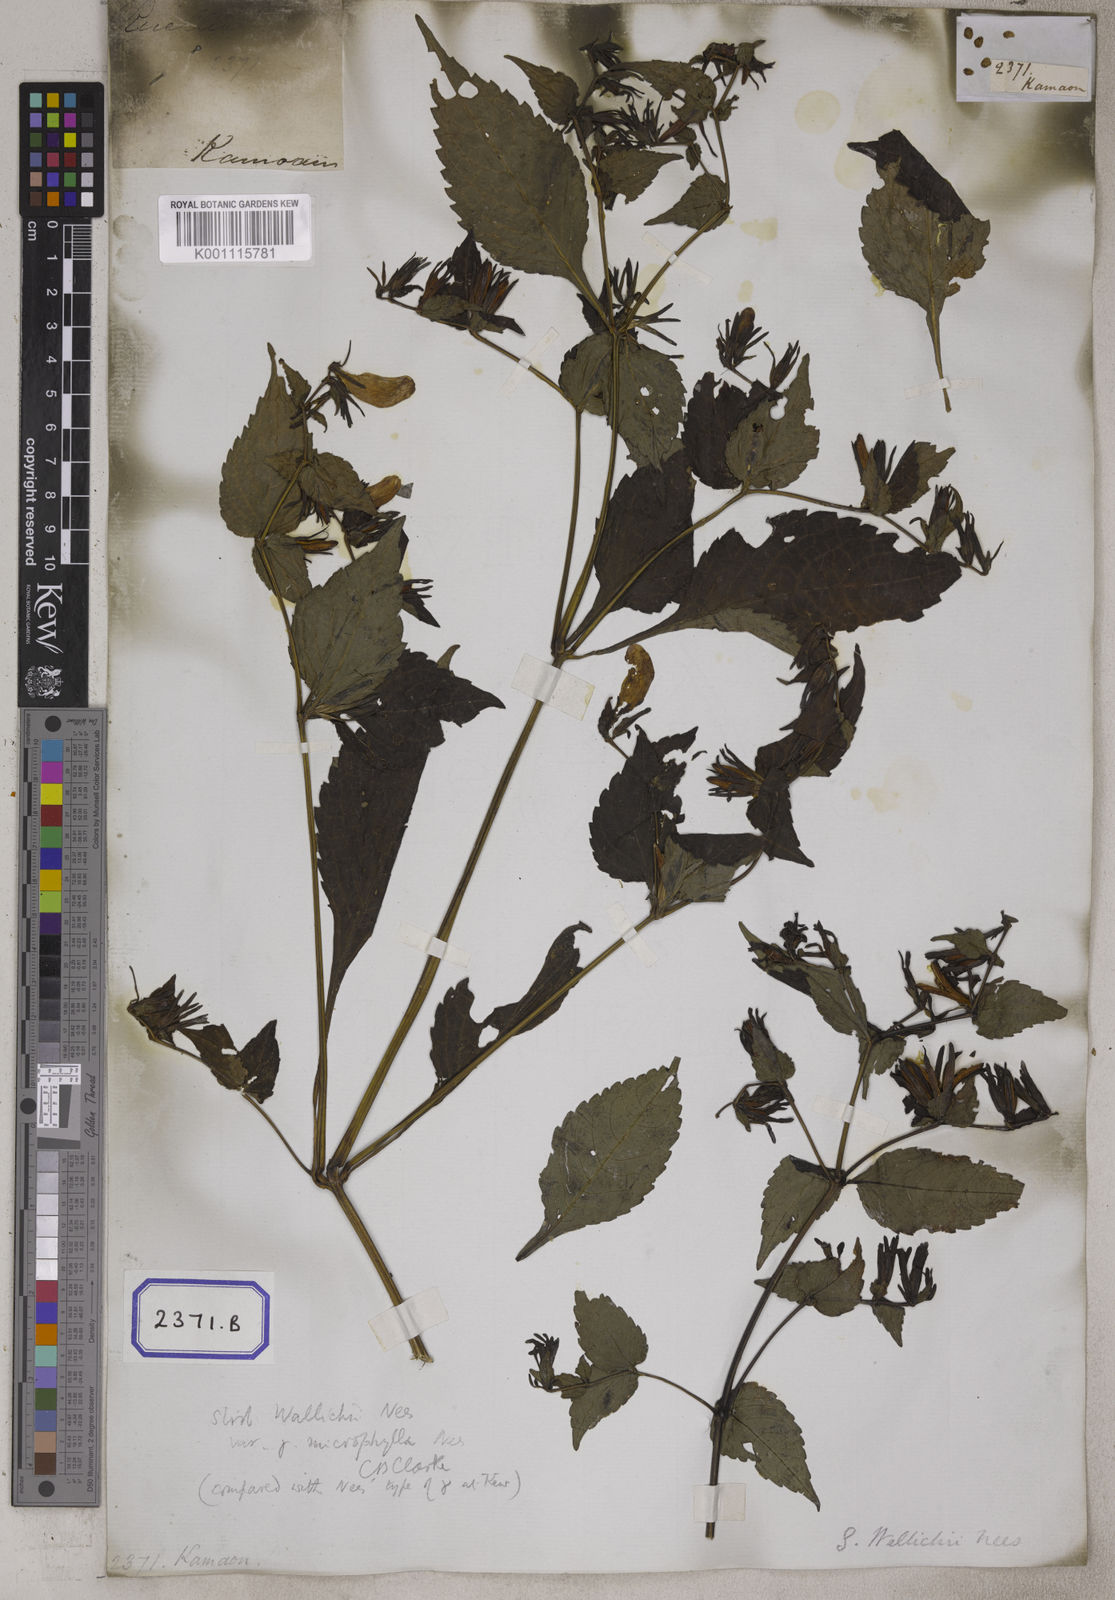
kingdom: Plantae
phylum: Tracheophyta
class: Magnoliopsida
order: Lamiales
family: Acanthaceae
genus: Ruellia
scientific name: Ruellia
